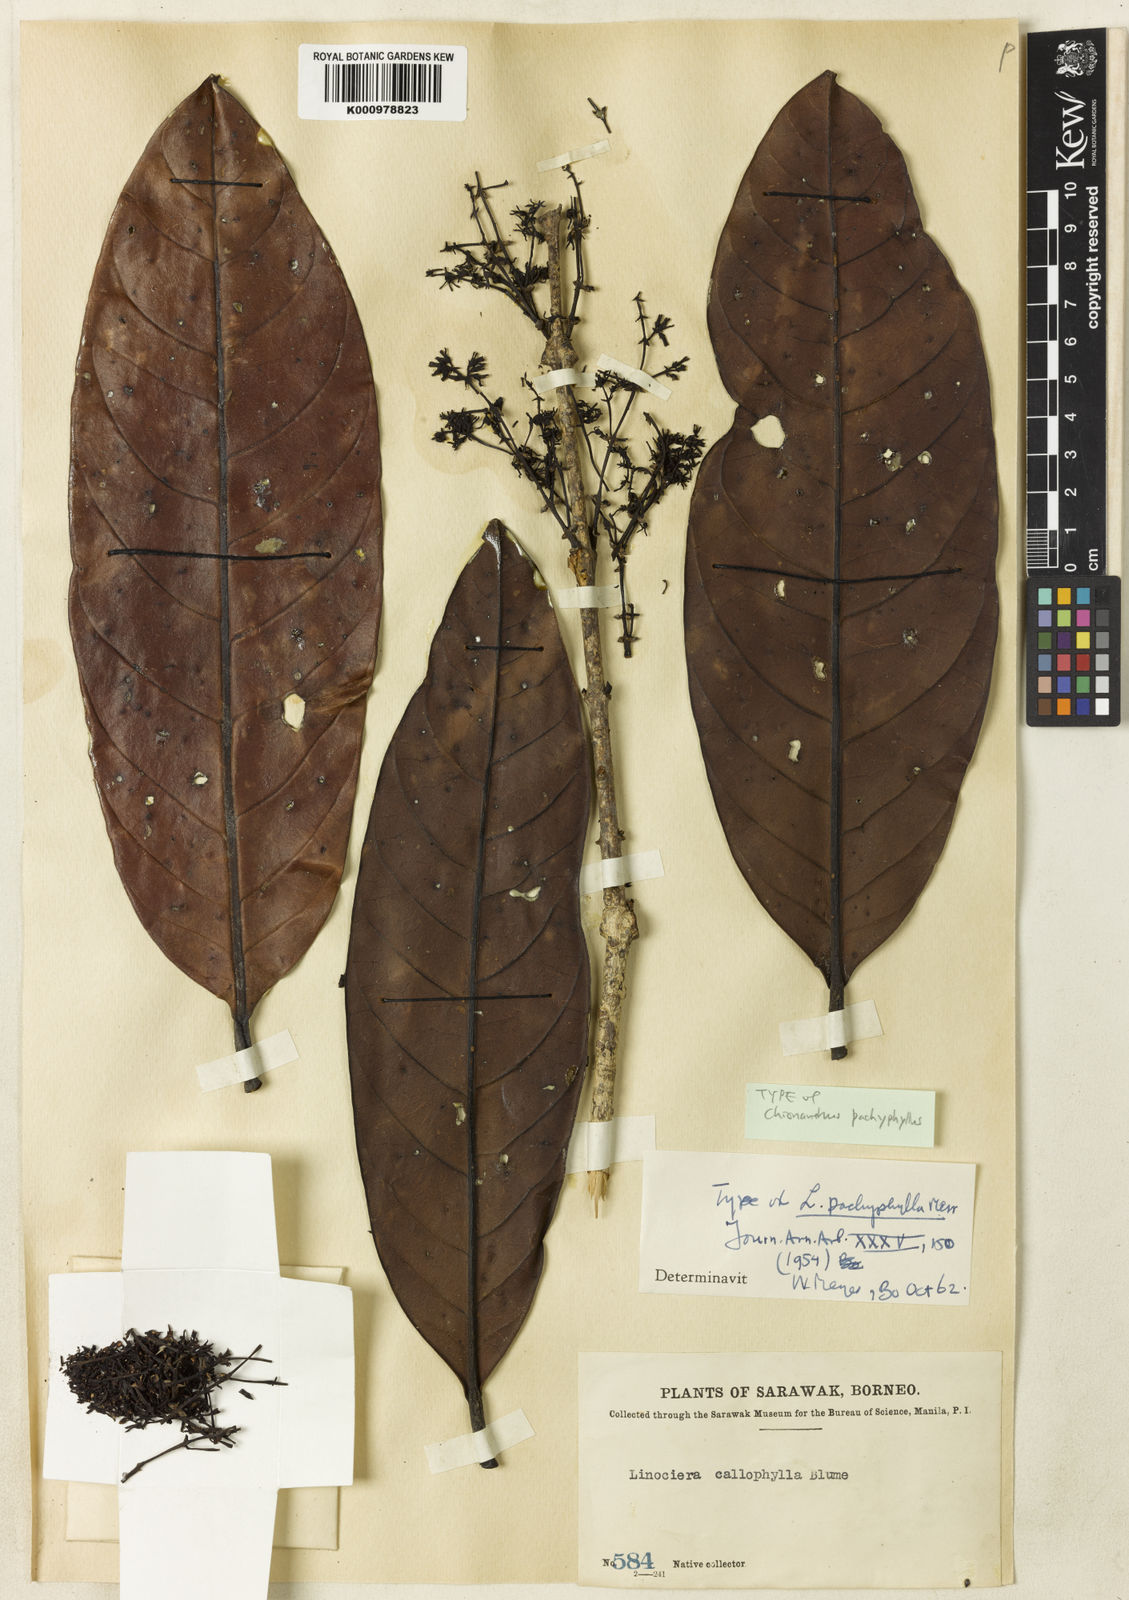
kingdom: Plantae
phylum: Tracheophyta
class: Magnoliopsida
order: Lamiales
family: Oleaceae
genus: Chionanthus
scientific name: Chionanthus pachyphyllus
